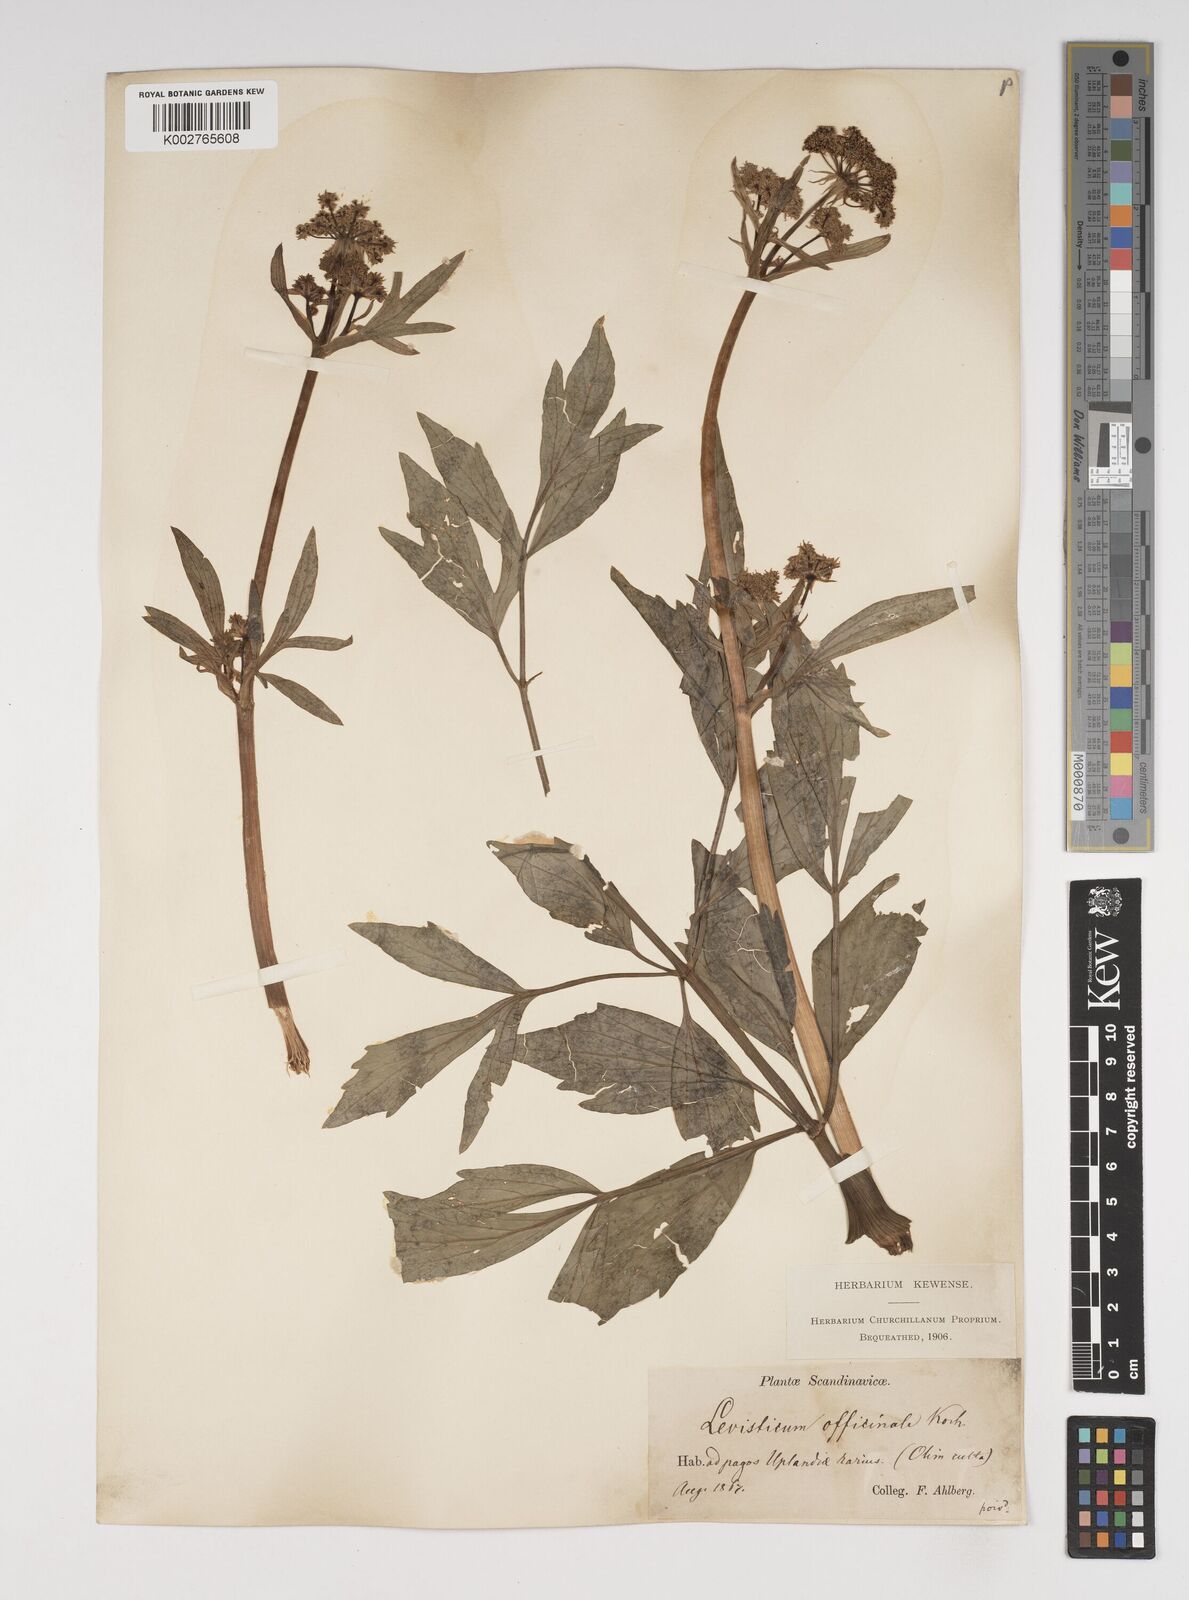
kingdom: Plantae
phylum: Tracheophyta
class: Magnoliopsida
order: Apiales
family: Apiaceae
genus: Levisticum
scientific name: Levisticum officinale
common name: Lovage
